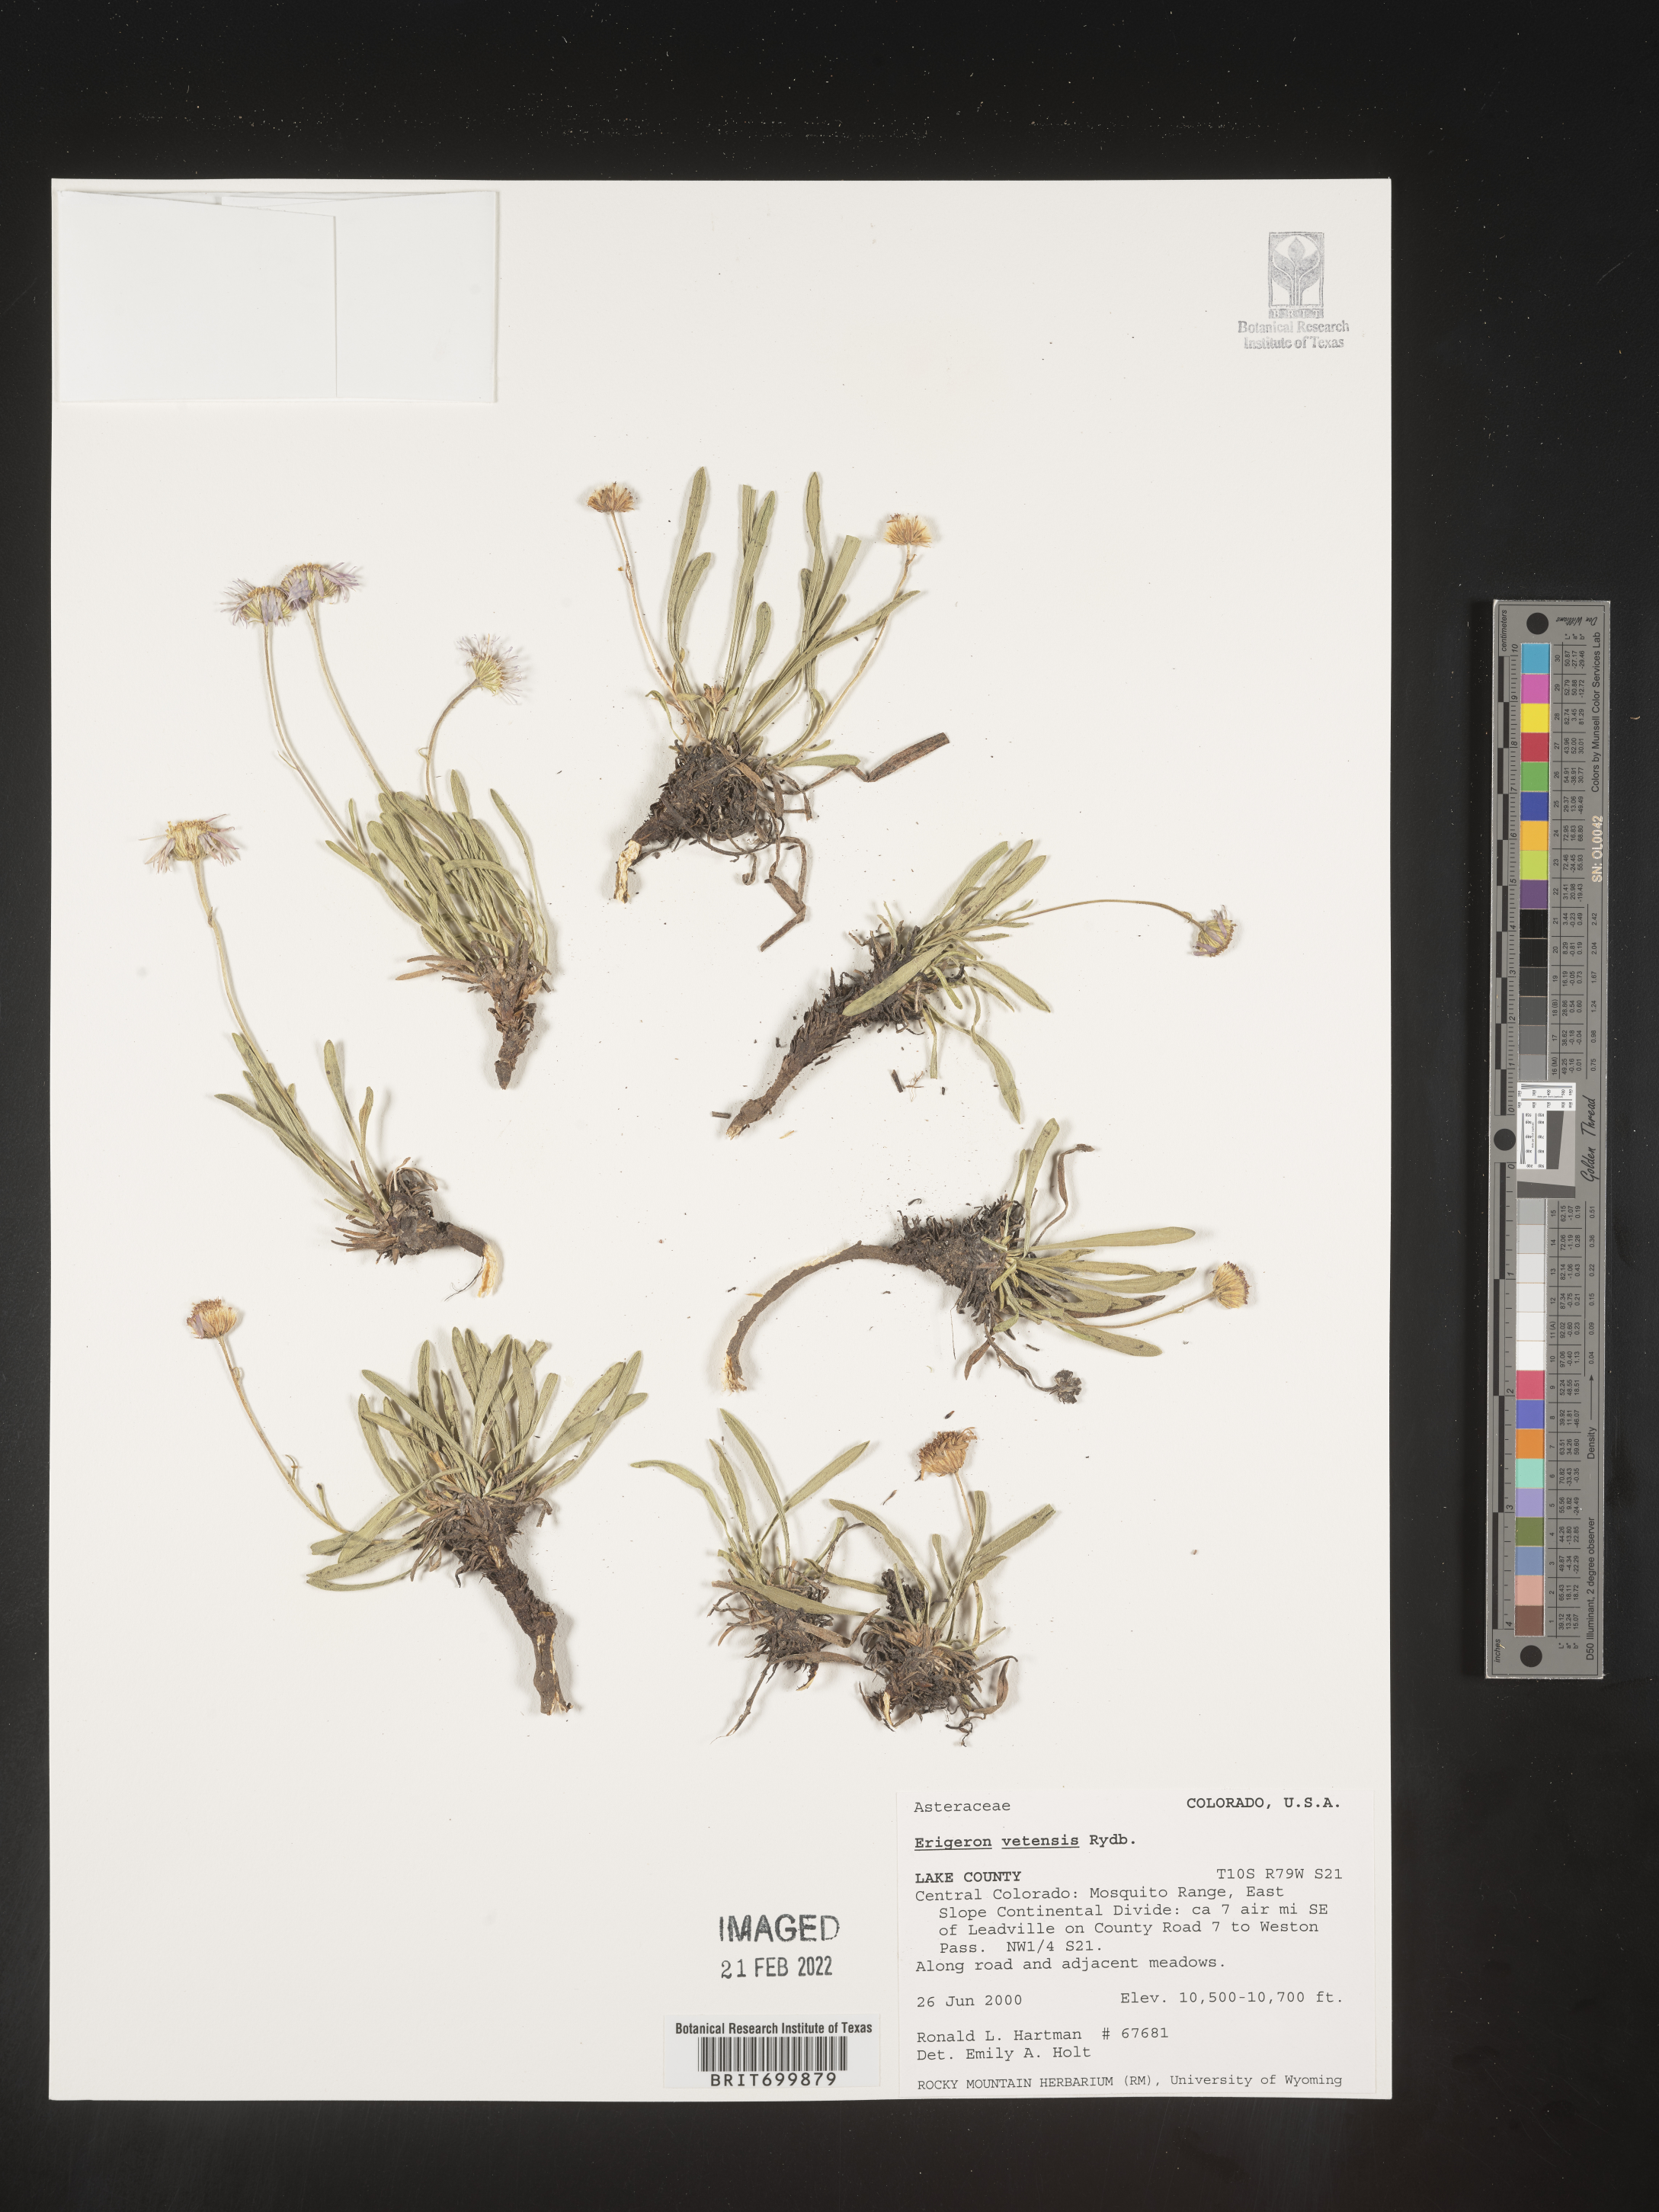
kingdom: Plantae
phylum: Tracheophyta
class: Magnoliopsida
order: Asterales
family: Asteraceae
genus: Erigeron
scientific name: Erigeron vetensis
